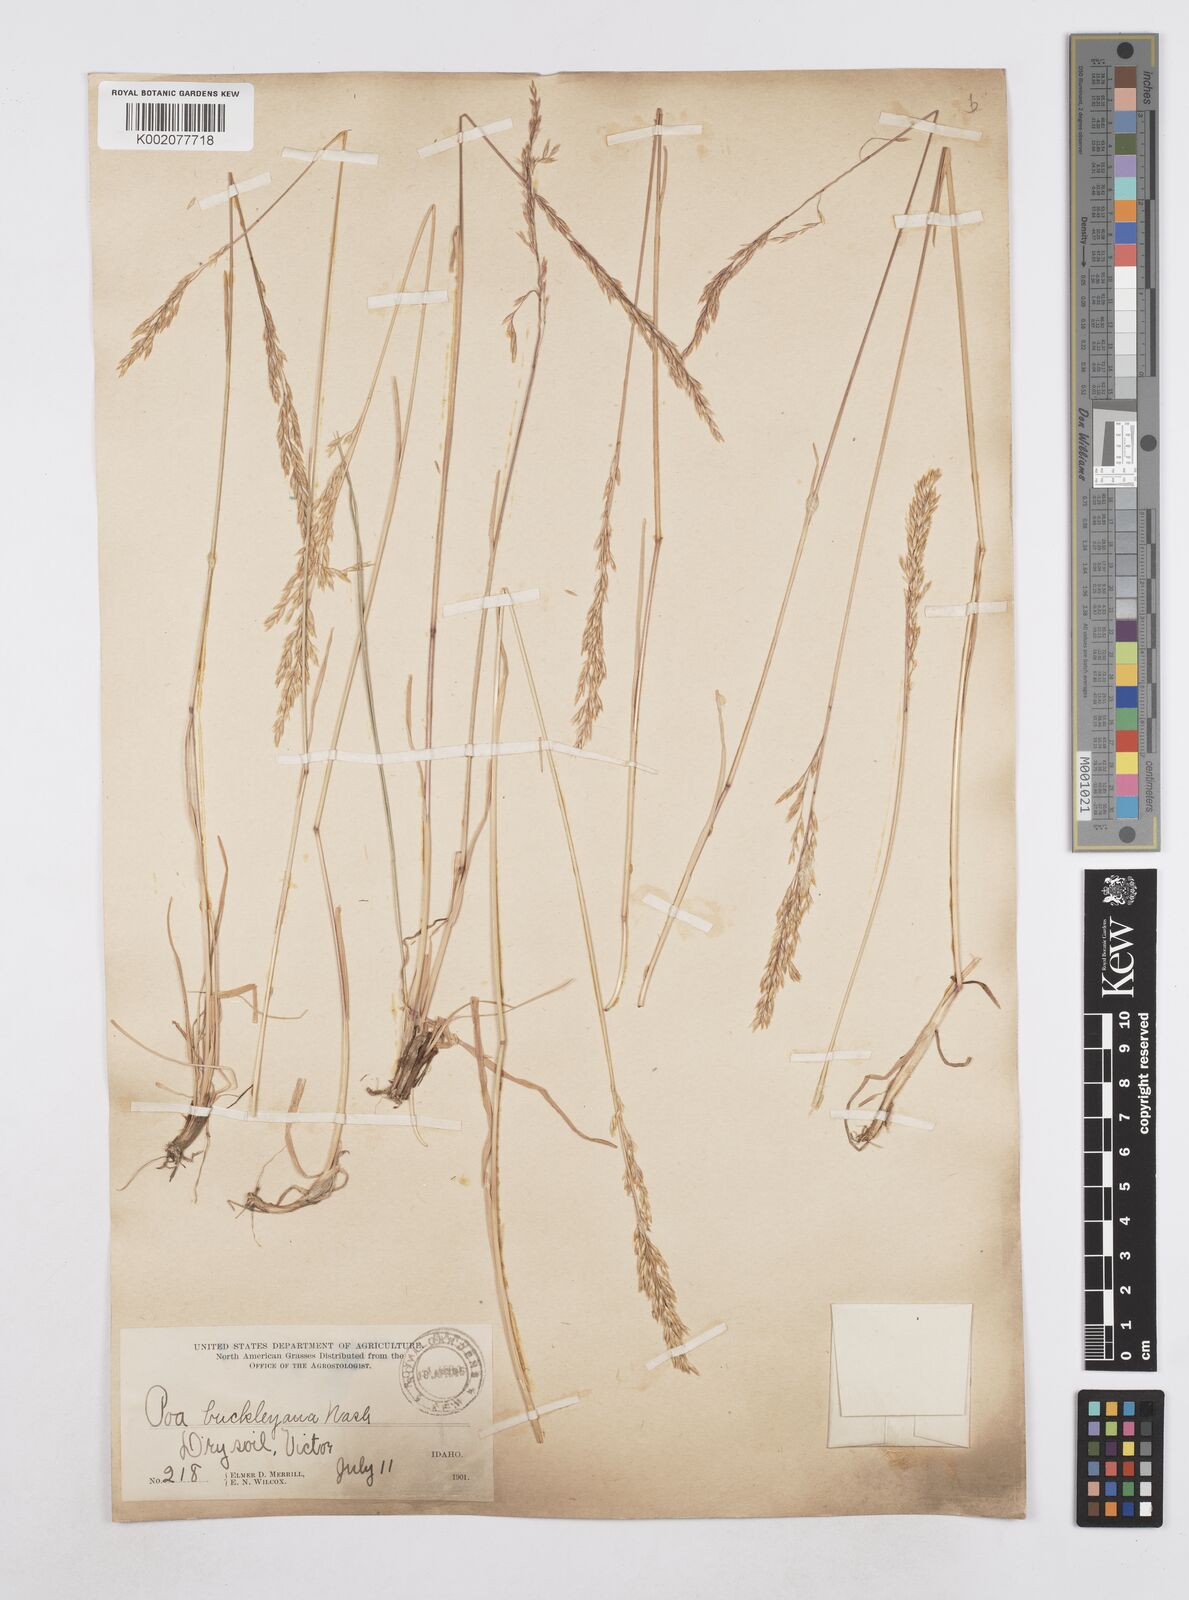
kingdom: Plantae
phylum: Tracheophyta
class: Liliopsida
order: Poales
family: Poaceae
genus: Poa
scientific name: Poa secunda
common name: Sandberg bluegrass
